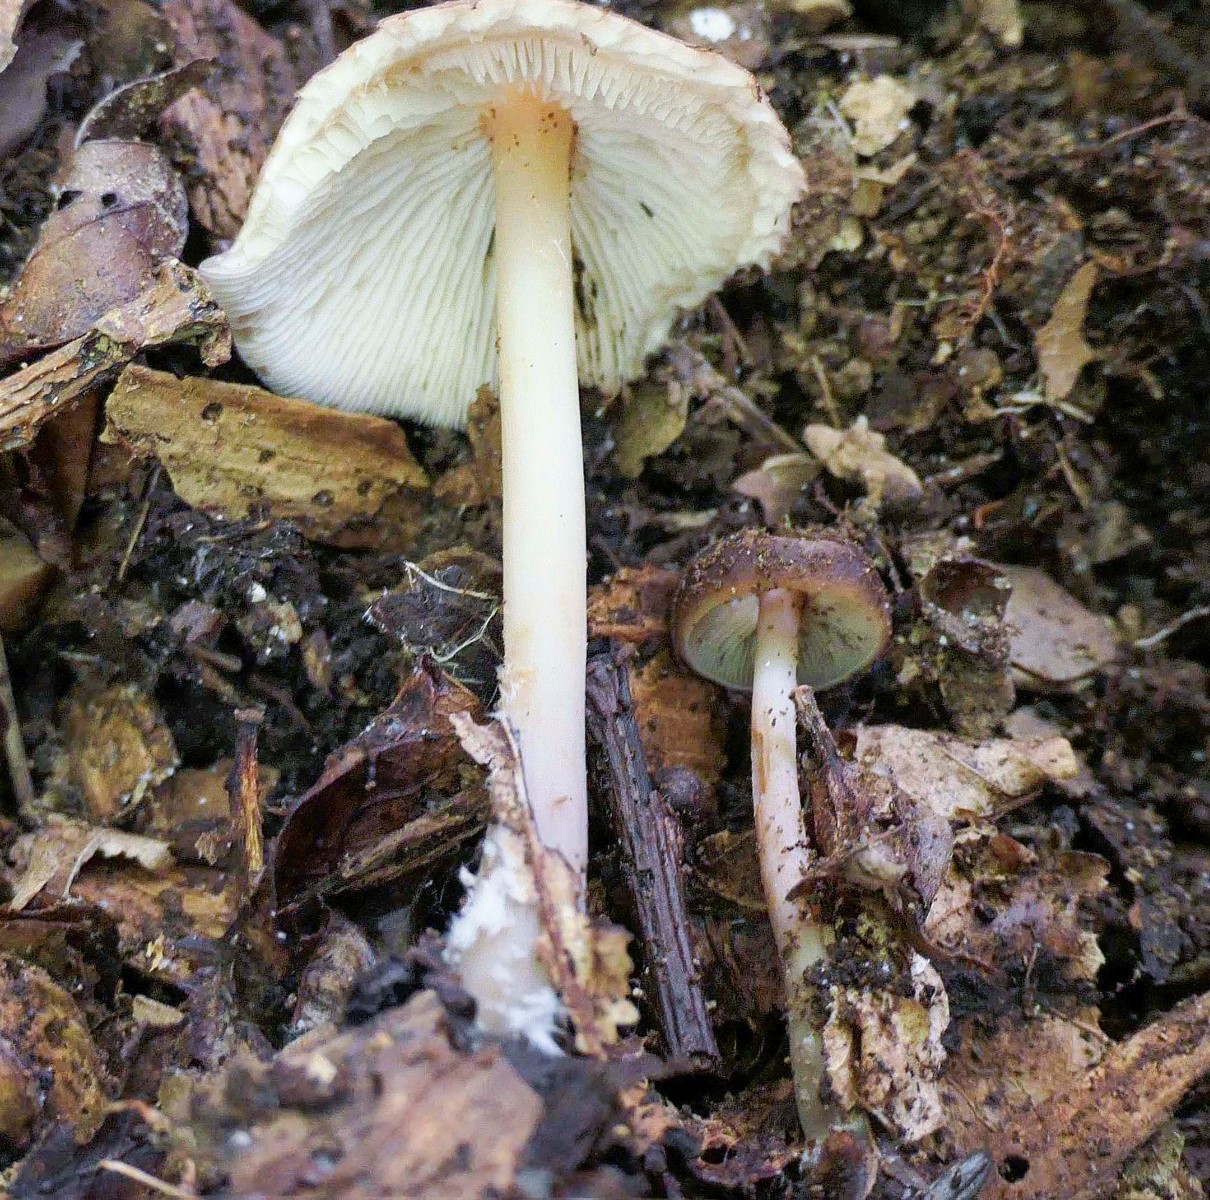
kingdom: Fungi
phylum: Basidiomycota
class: Agaricomycetes
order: Agaricales
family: Omphalotaceae
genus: Gymnopus
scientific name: Gymnopus ocior
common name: mørk fladhat
